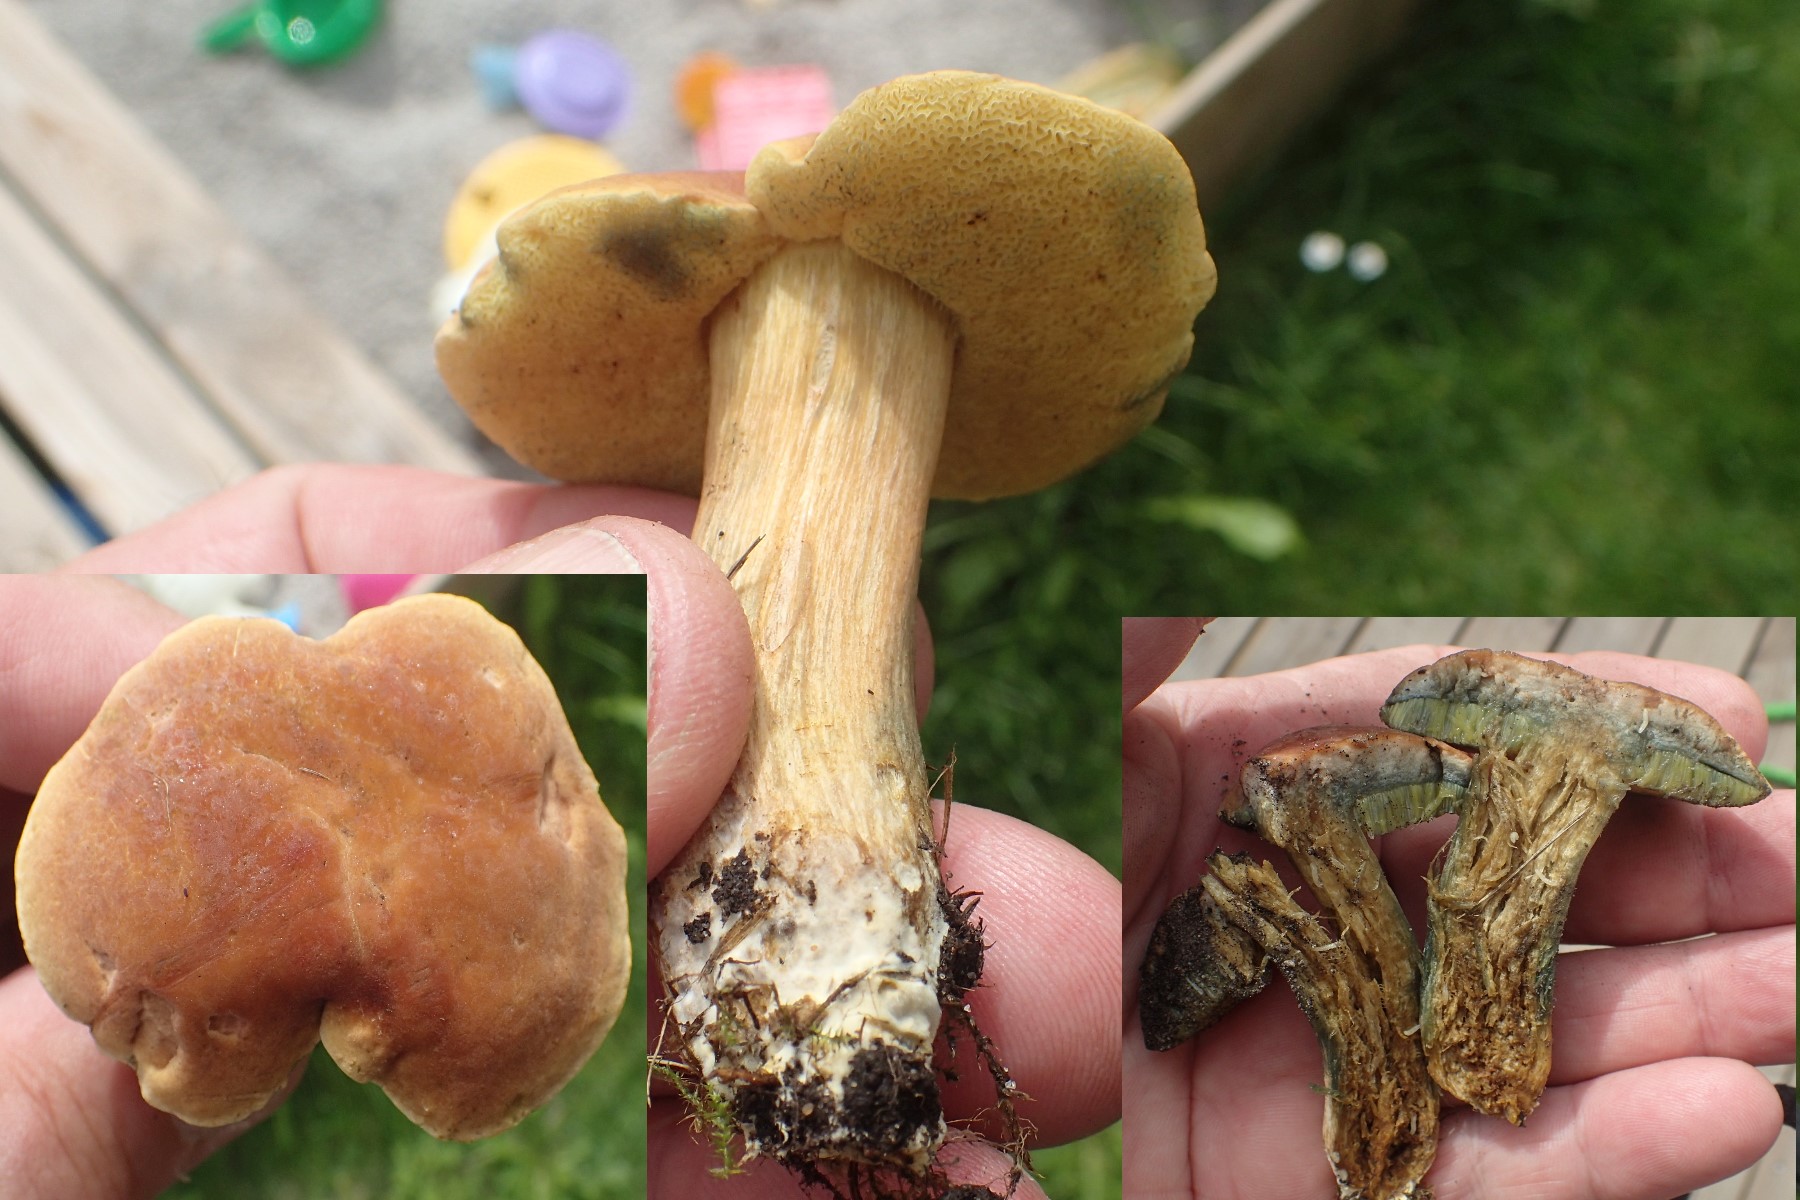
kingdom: Fungi
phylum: Basidiomycota
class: Agaricomycetes
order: Boletales
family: Boletaceae
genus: Hortiboletus
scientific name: Hortiboletus bubalinus
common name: aurora-rørhat
